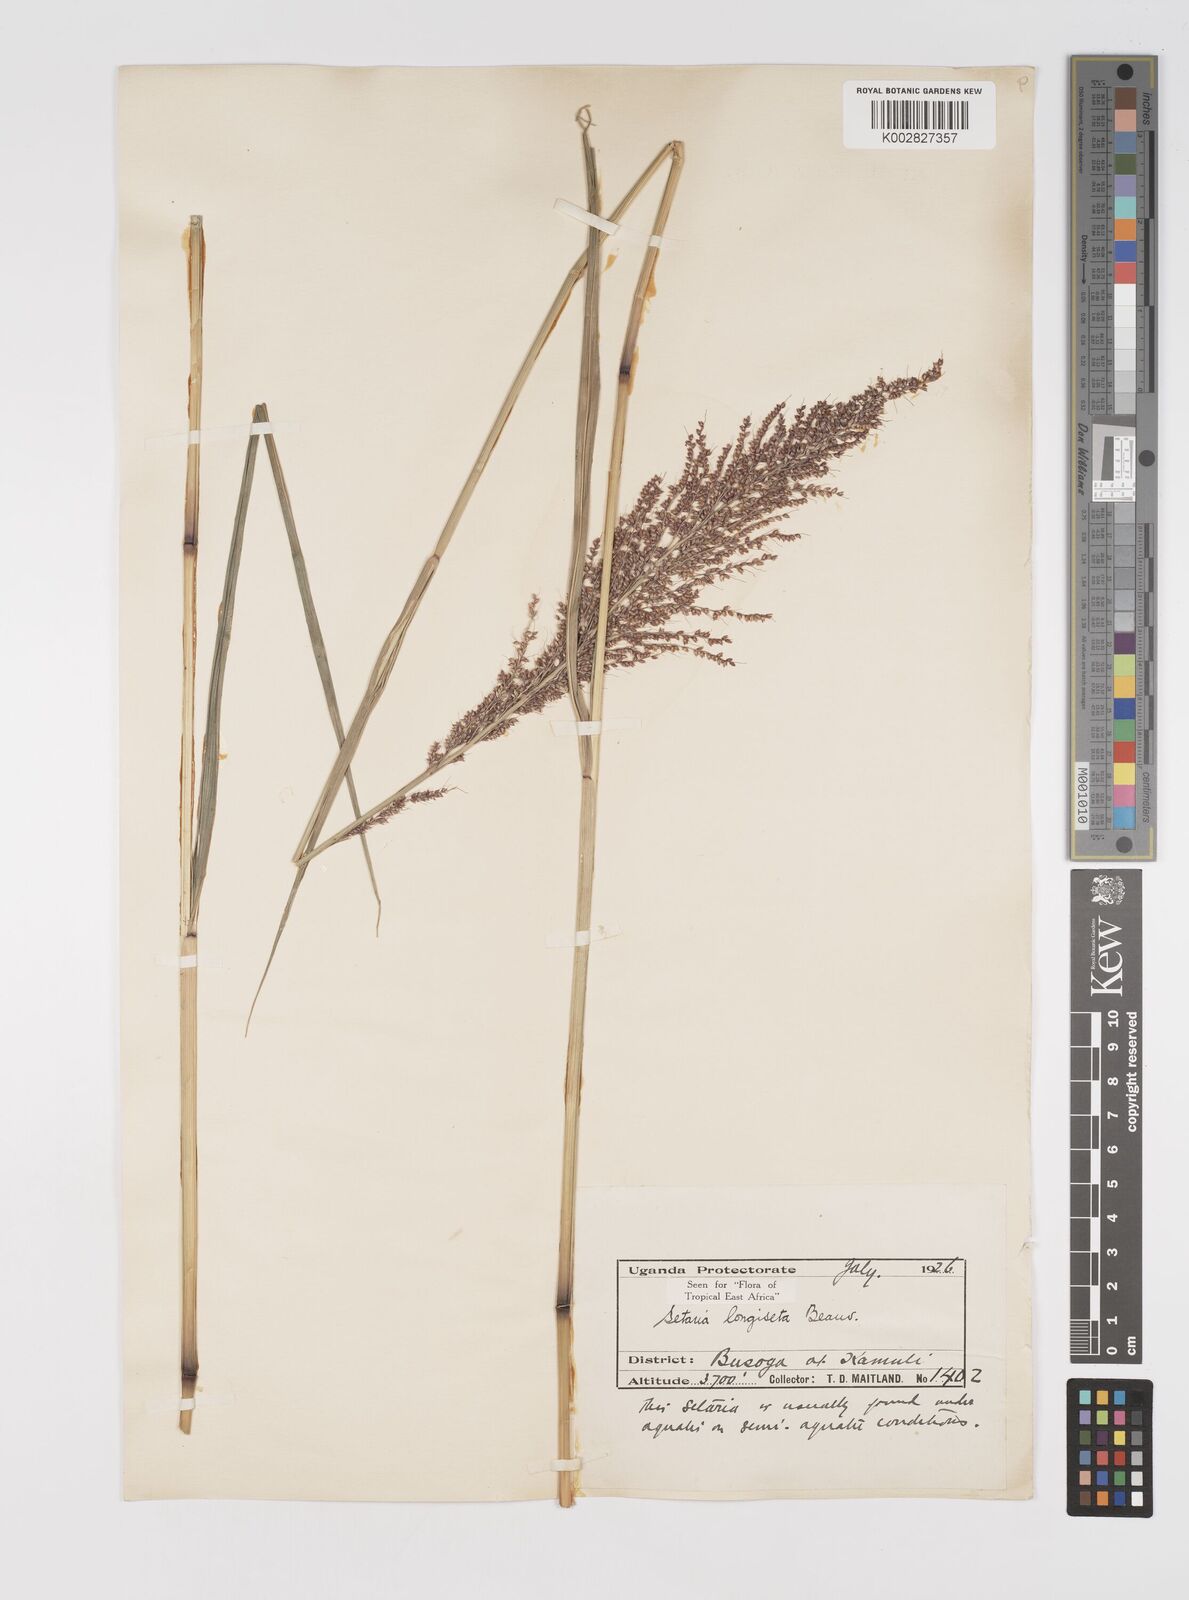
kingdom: Plantae
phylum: Tracheophyta
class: Liliopsida
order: Poales
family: Poaceae
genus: Setaria
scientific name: Setaria longiseta
